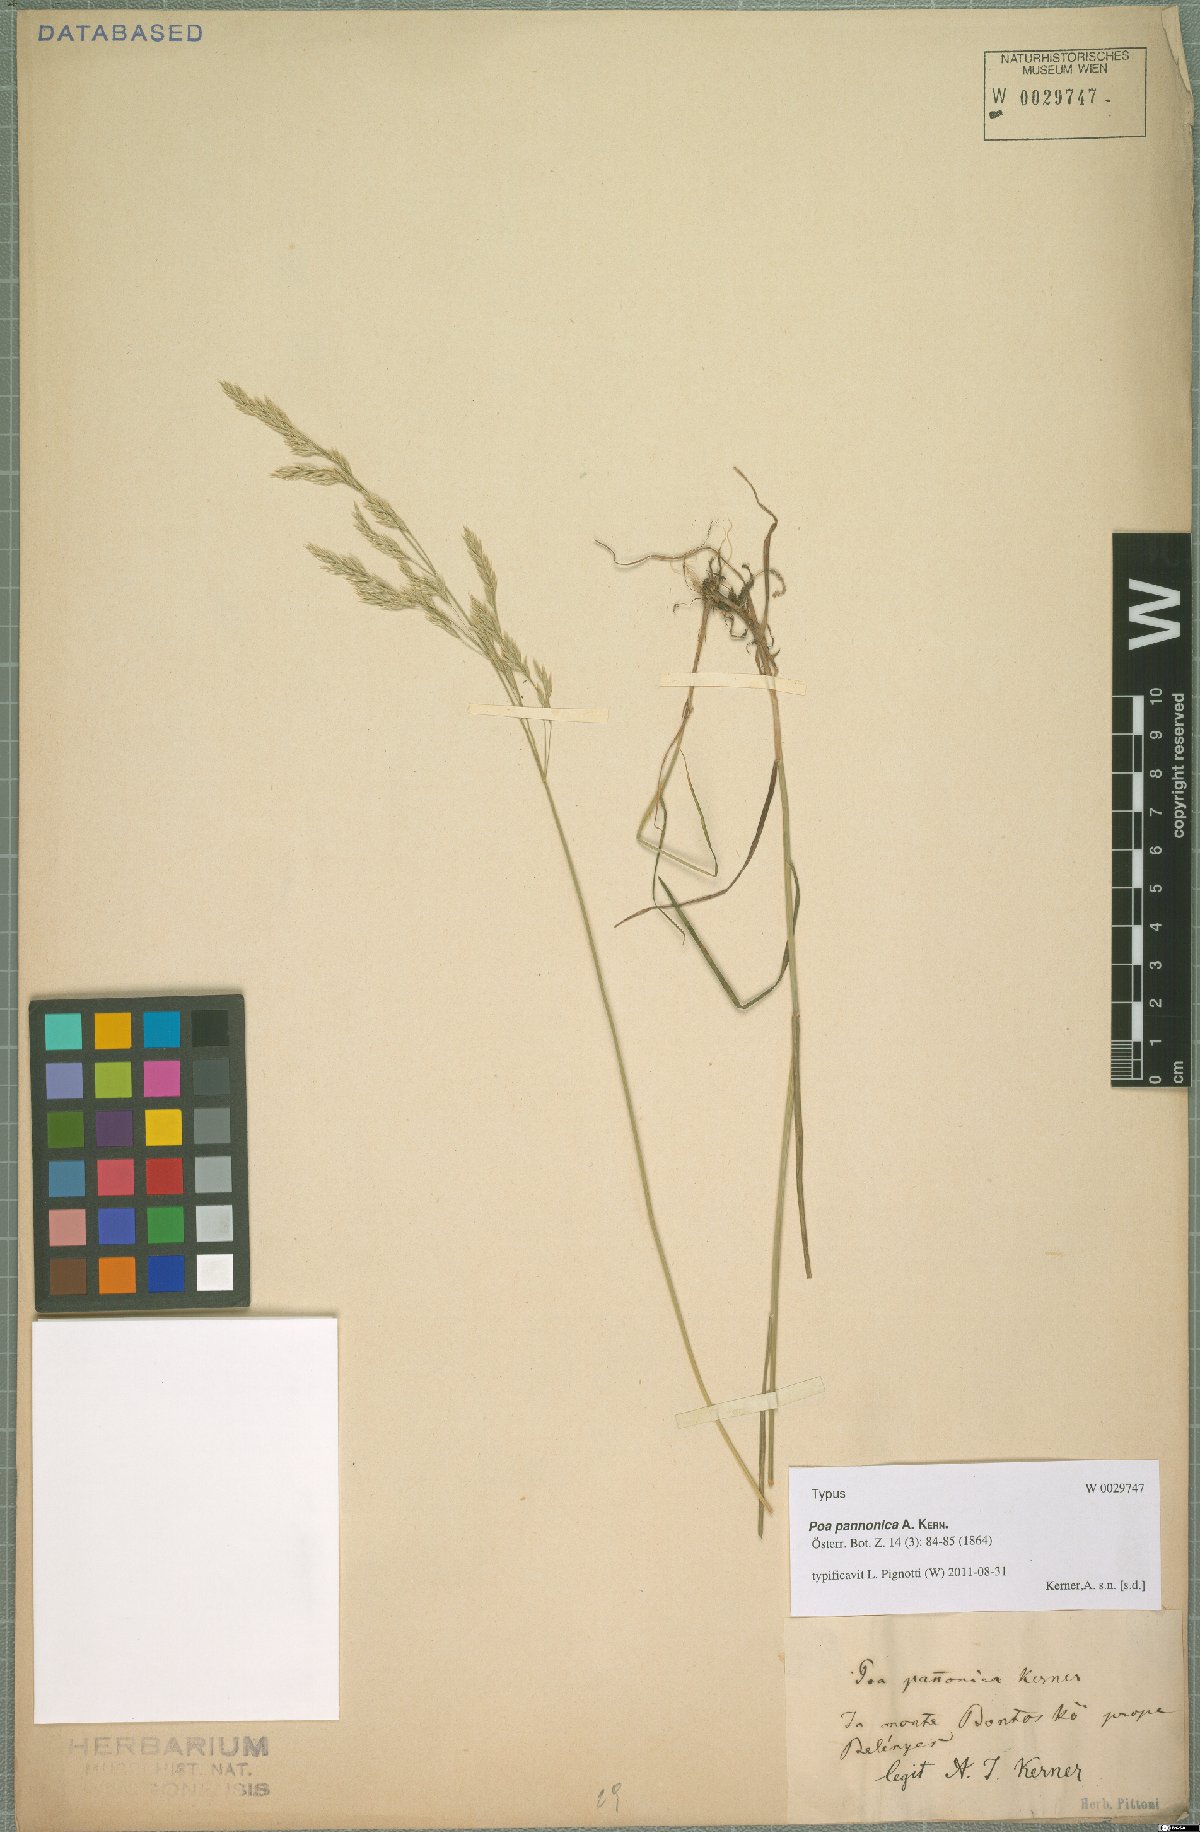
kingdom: Plantae
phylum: Tracheophyta
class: Liliopsida
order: Poales
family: Poaceae
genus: Poa
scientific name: Poa pannonica
